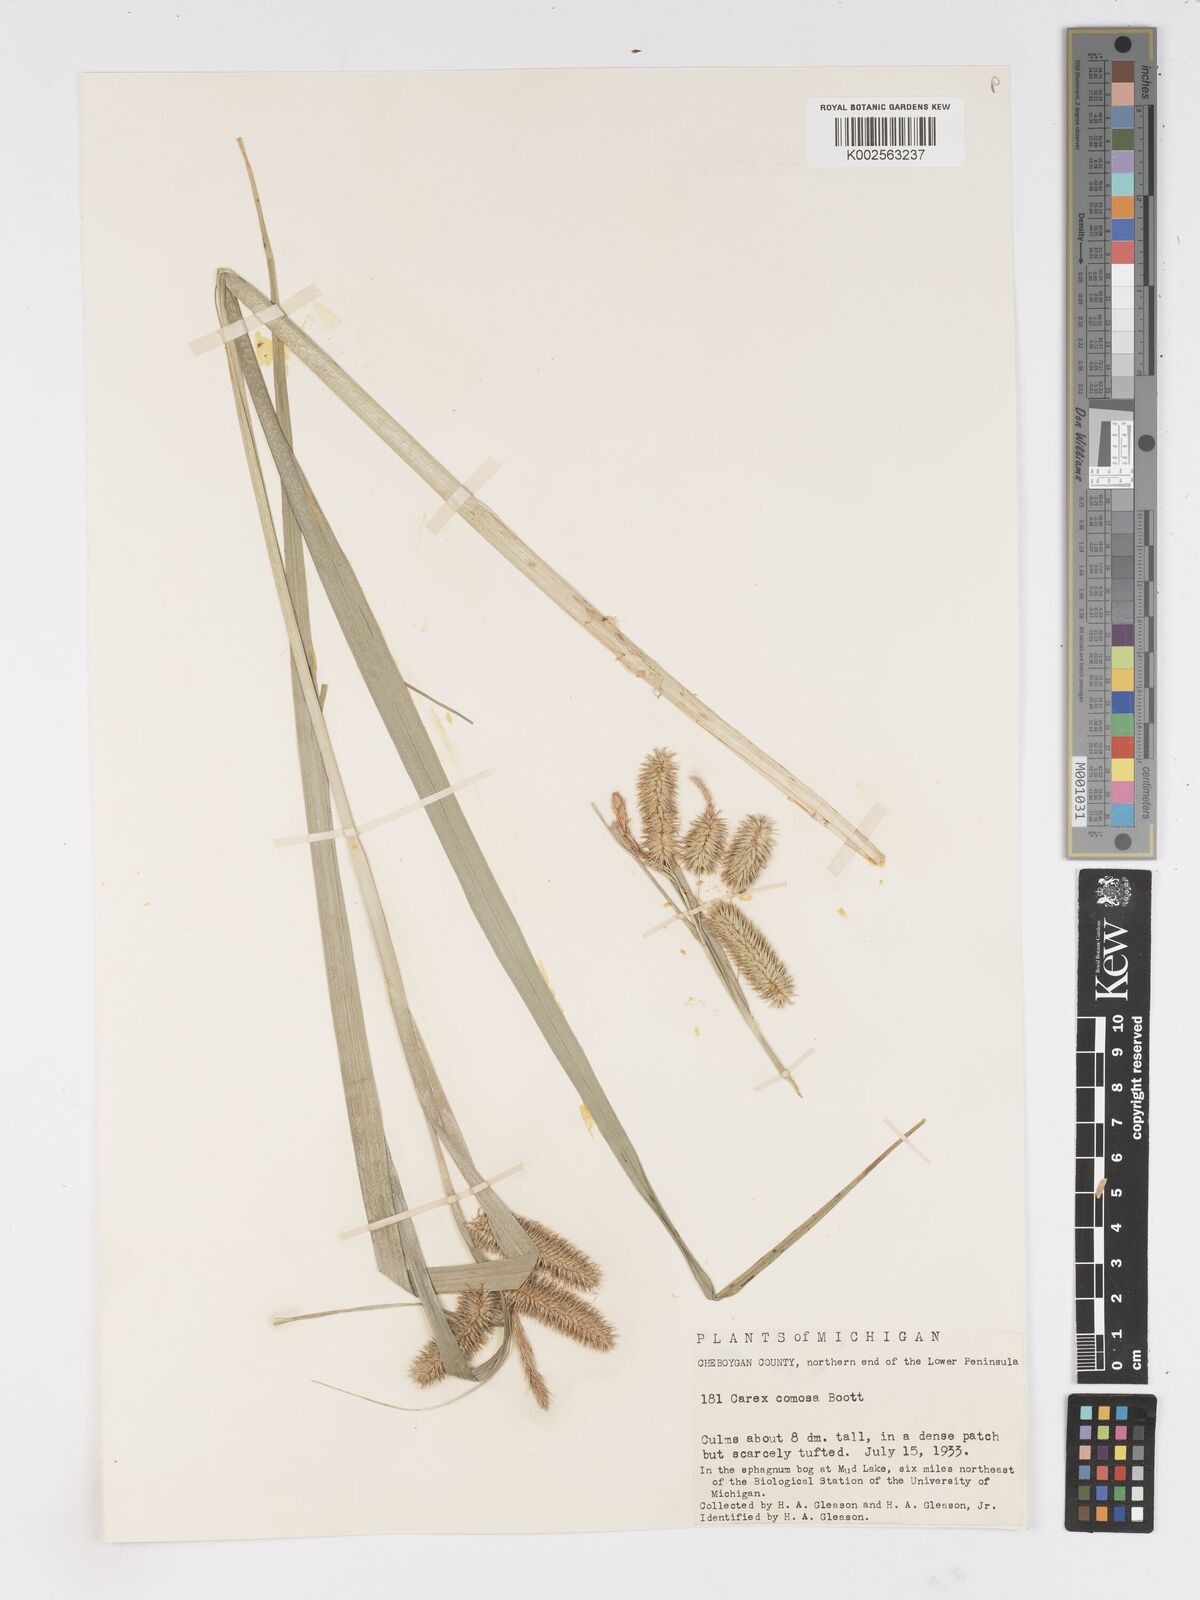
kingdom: Plantae
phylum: Tracheophyta
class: Liliopsida
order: Poales
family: Cyperaceae
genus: Carex
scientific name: Carex comosa
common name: Bristly sedge
